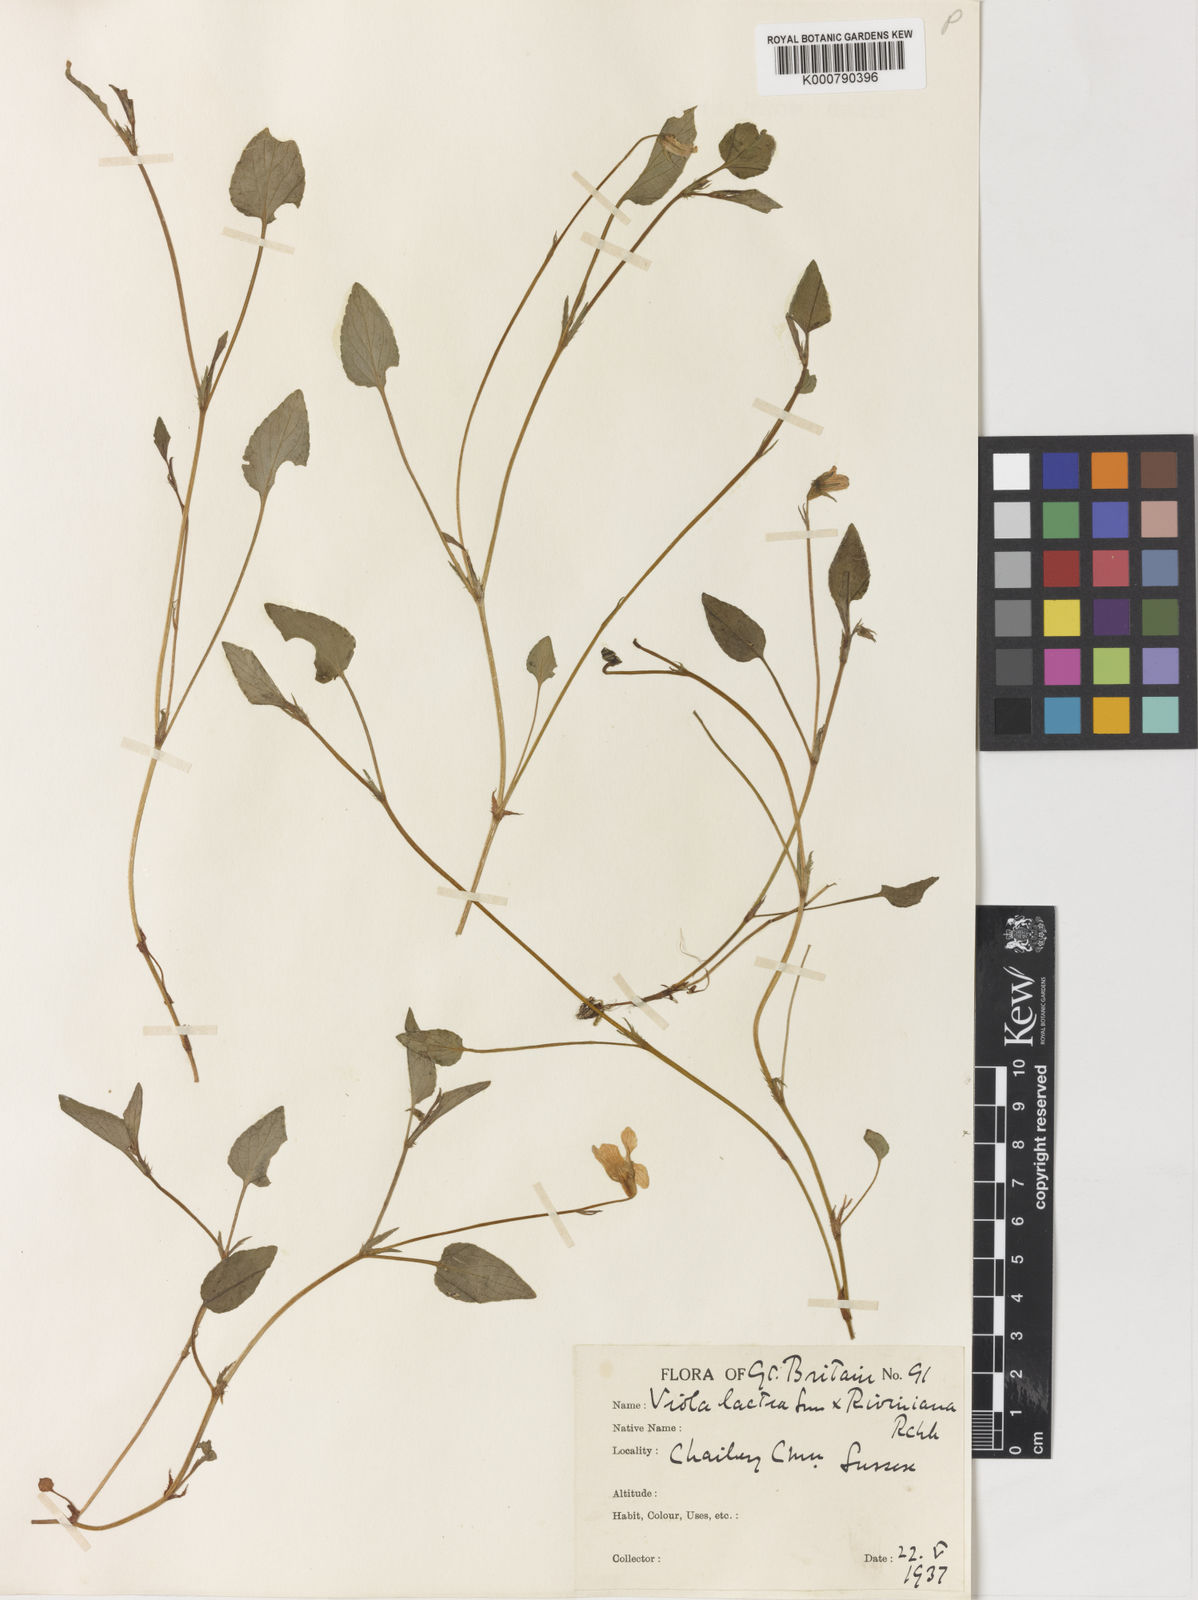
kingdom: Plantae
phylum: Tracheophyta
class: Magnoliopsida
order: Malpighiales
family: Violaceae
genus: Viola
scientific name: Viola lactea
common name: Pale dog-violet
